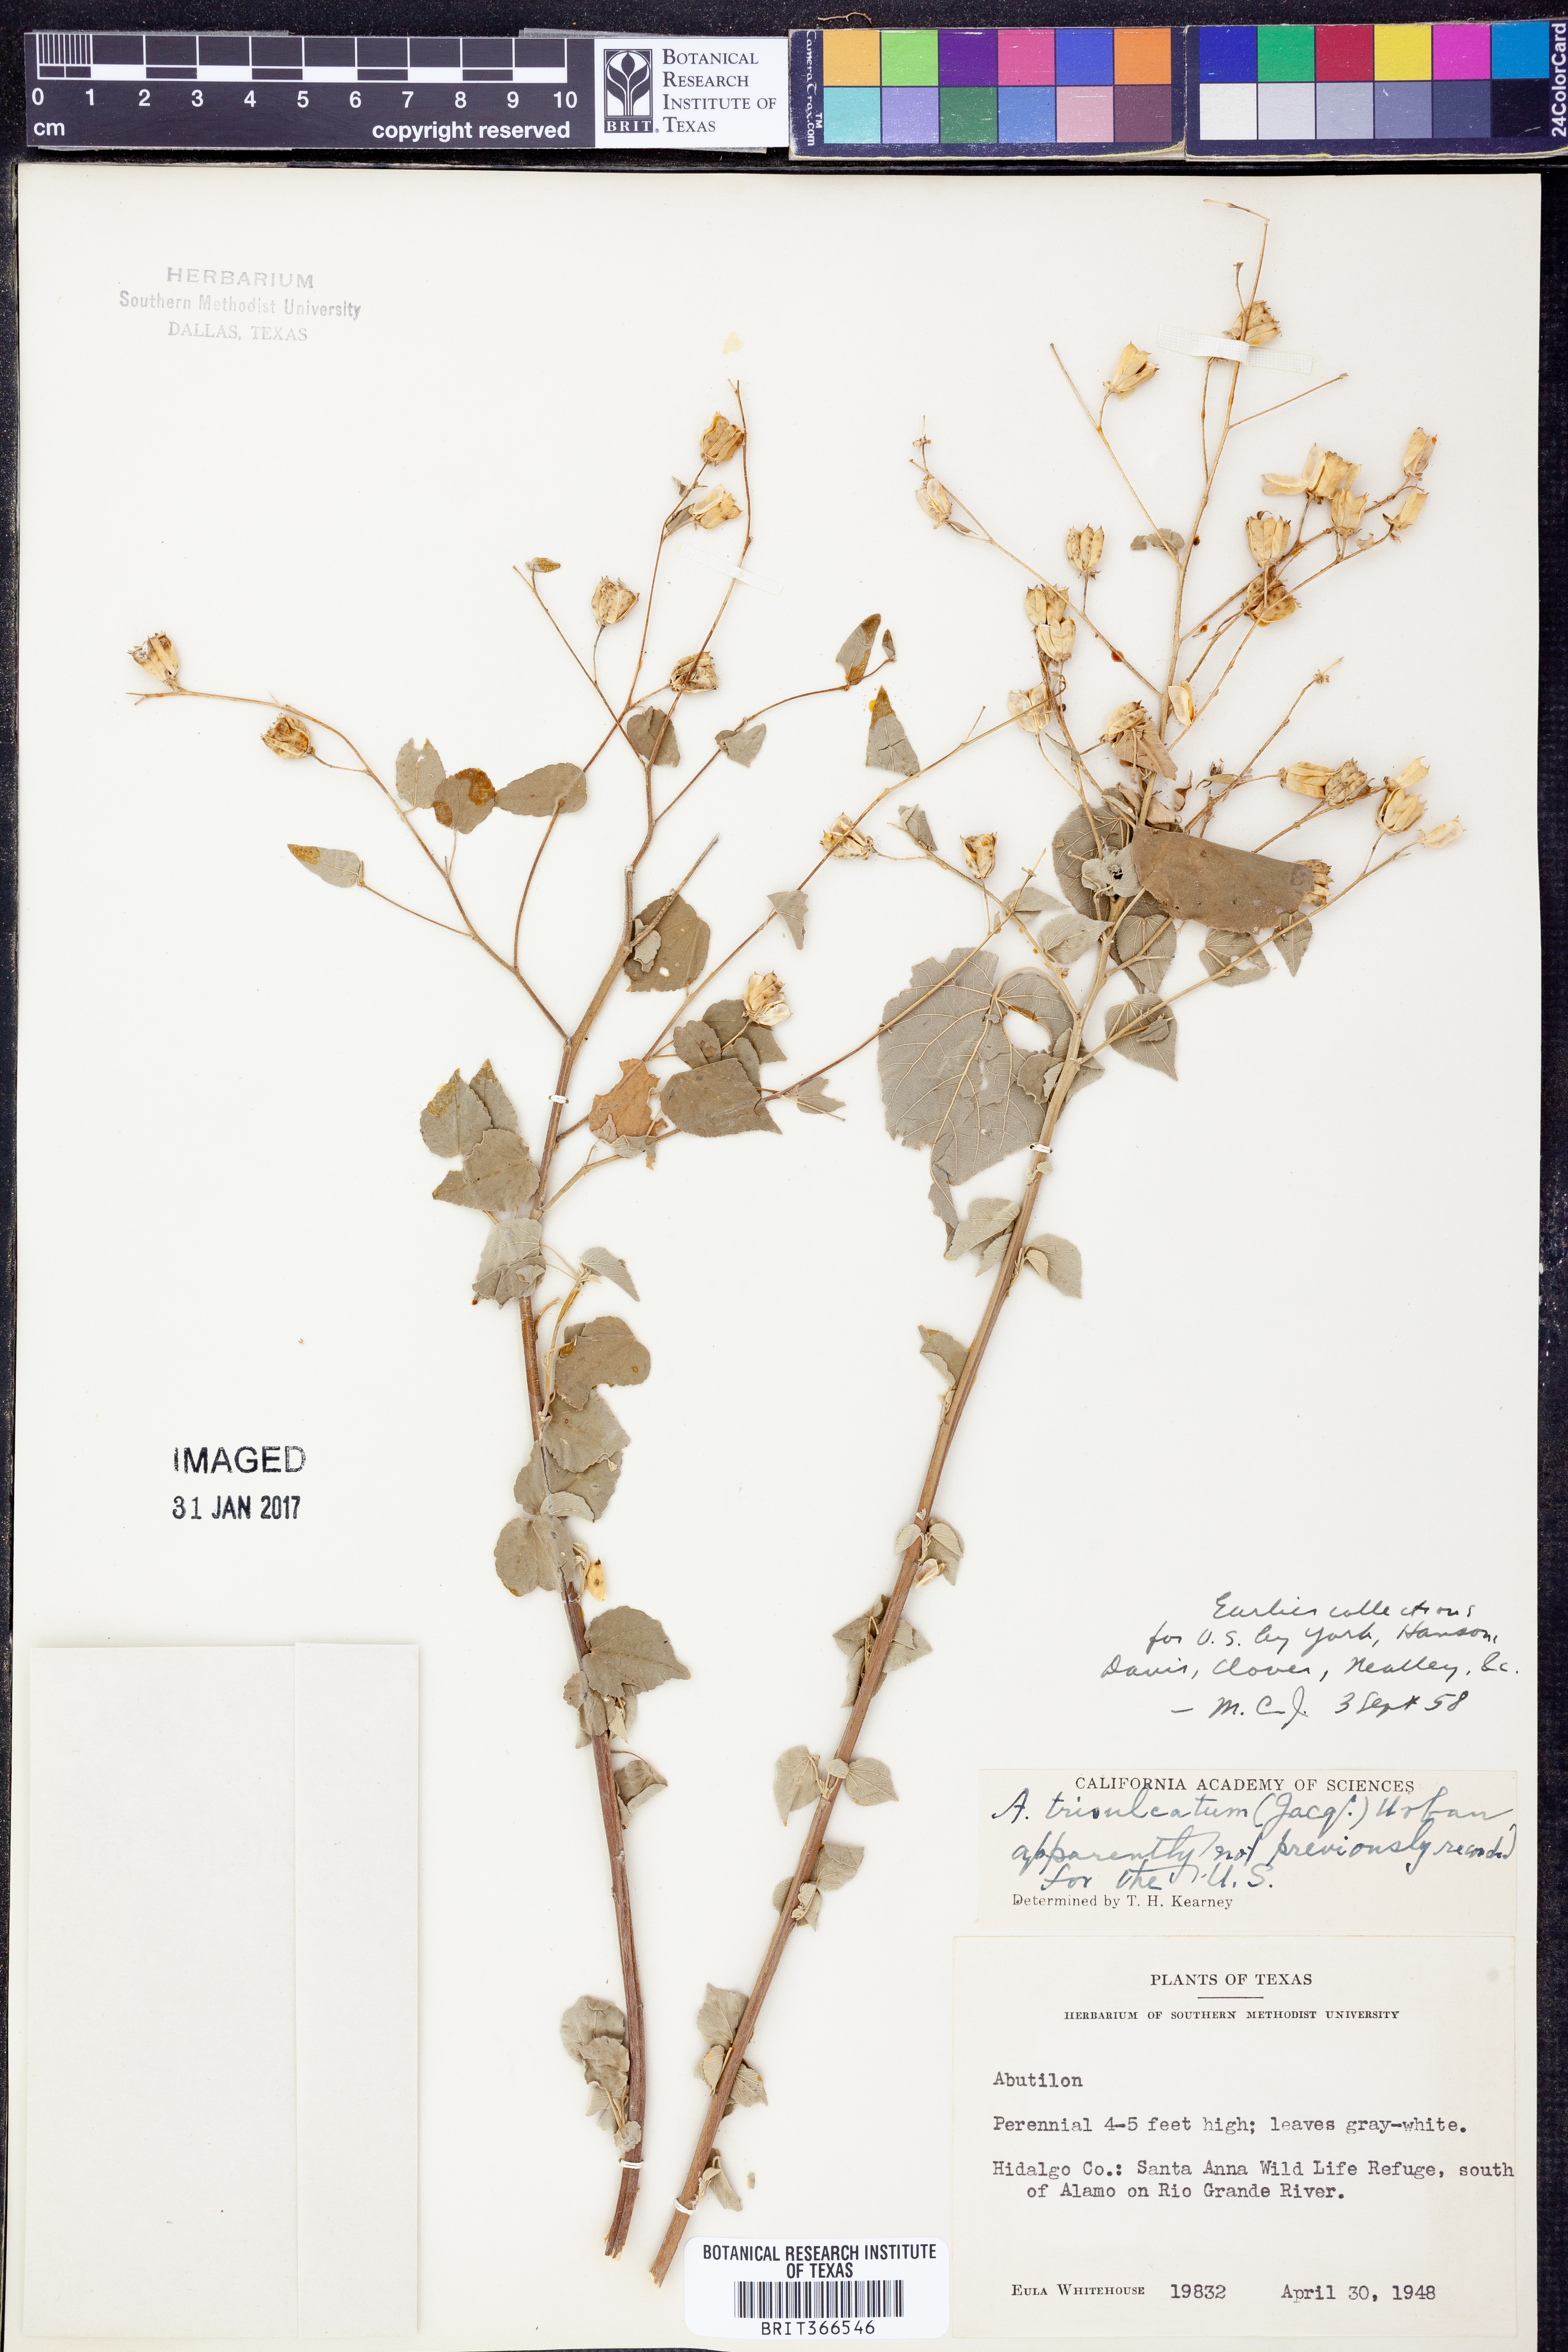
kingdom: Plantae
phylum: Tracheophyta
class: Magnoliopsida
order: Malvales
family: Malvaceae
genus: Abutilon
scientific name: Abutilon trisulcatum
